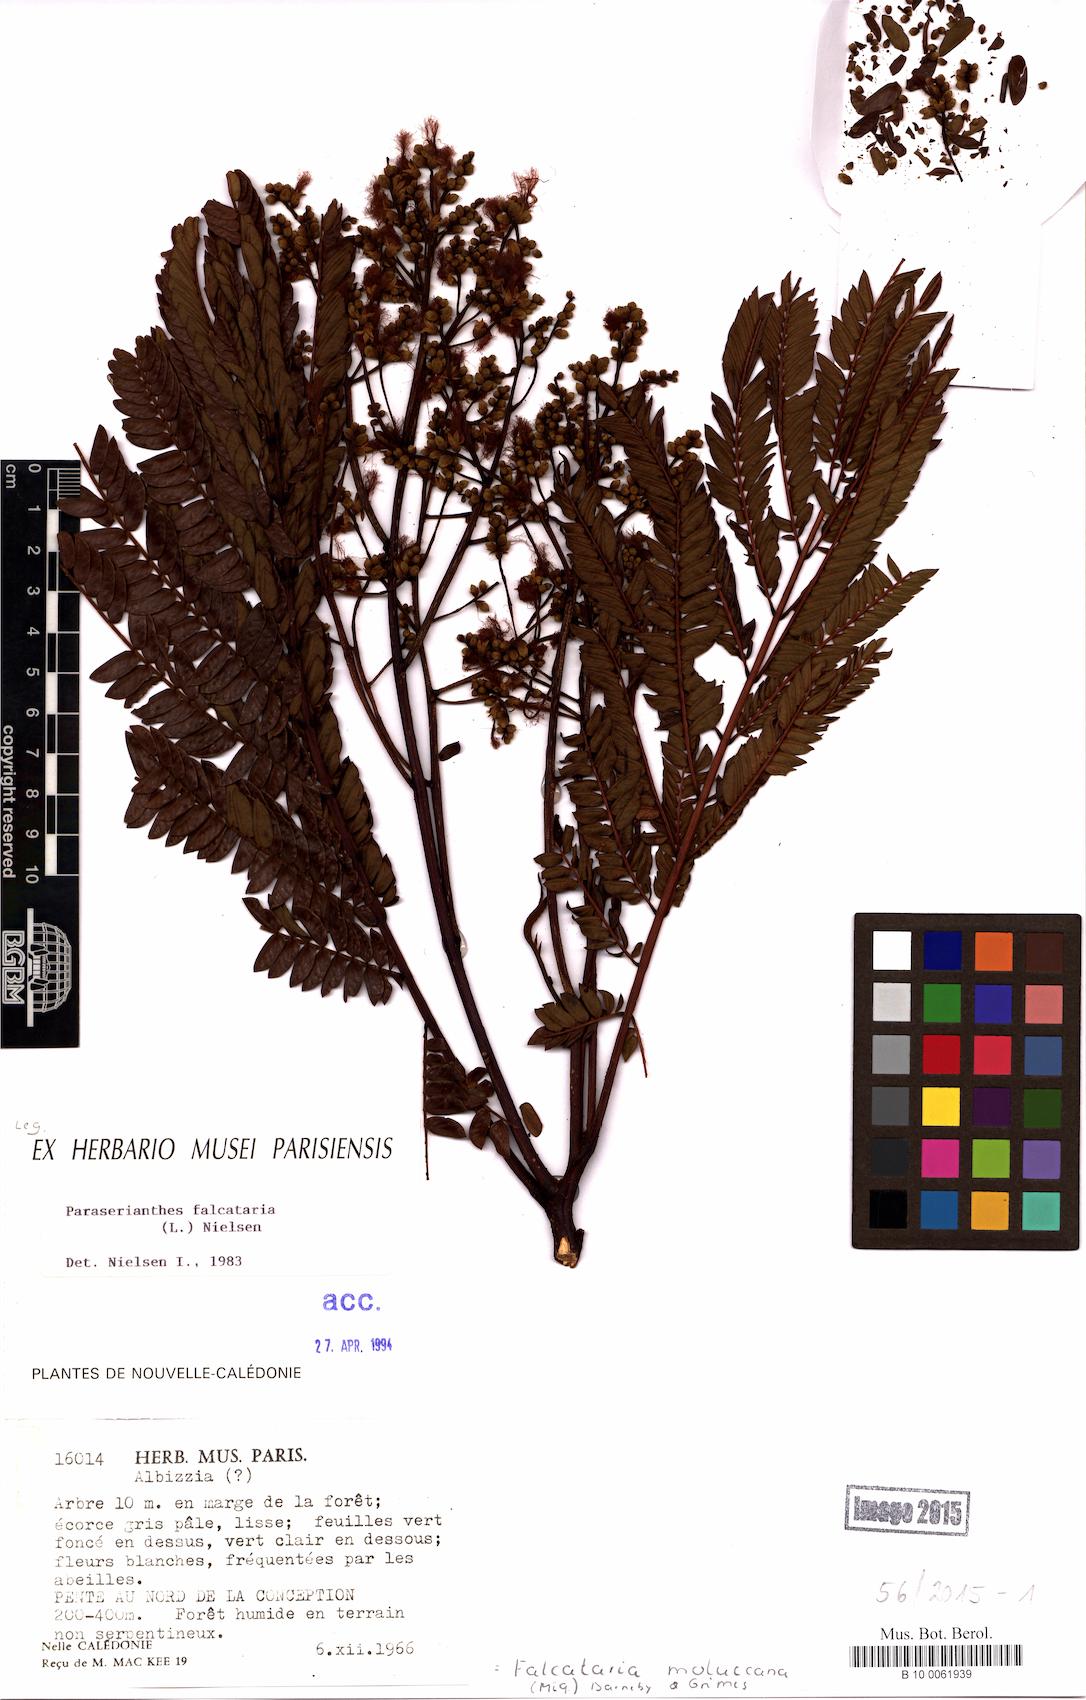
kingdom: Plantae
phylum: Tracheophyta
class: Magnoliopsida
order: Fabales
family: Fabaceae
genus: Falcataria
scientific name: Falcataria falcata
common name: Moluccan albizia
